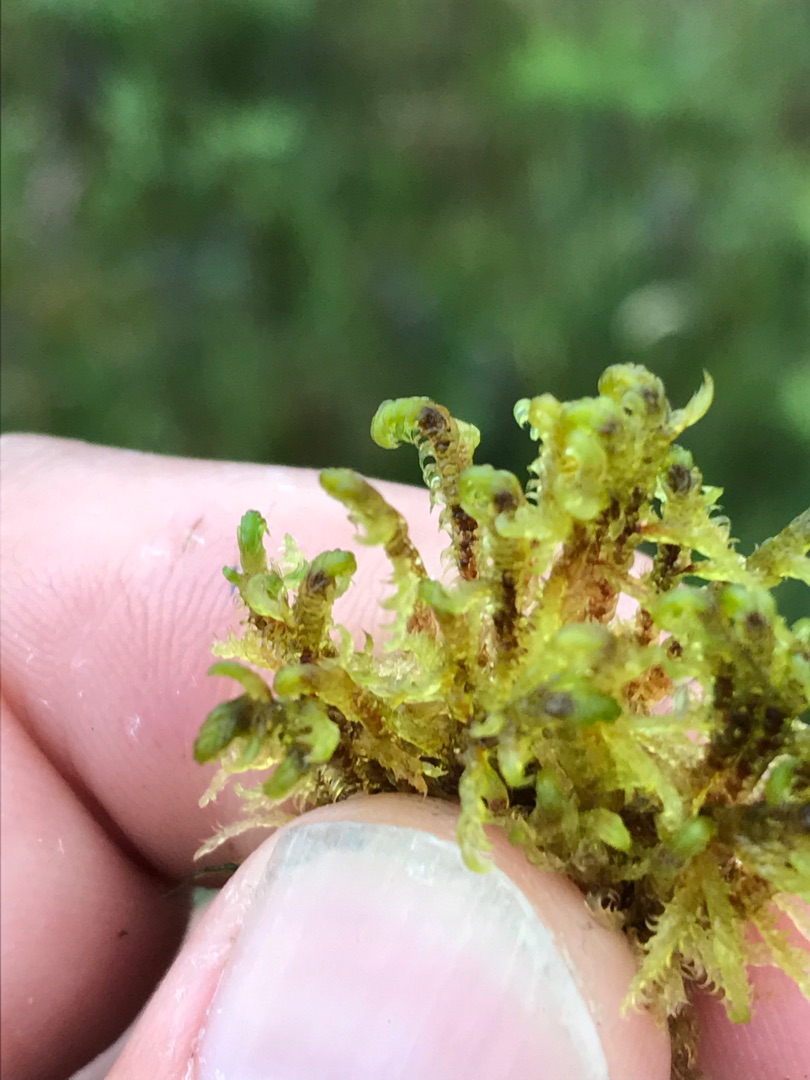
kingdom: Plantae
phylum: Bryophyta
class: Bryopsida
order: Hypnales
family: Scorpidiaceae
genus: Hamatocaulis
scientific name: Hamatocaulis vernicosus
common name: Blank seglmos
